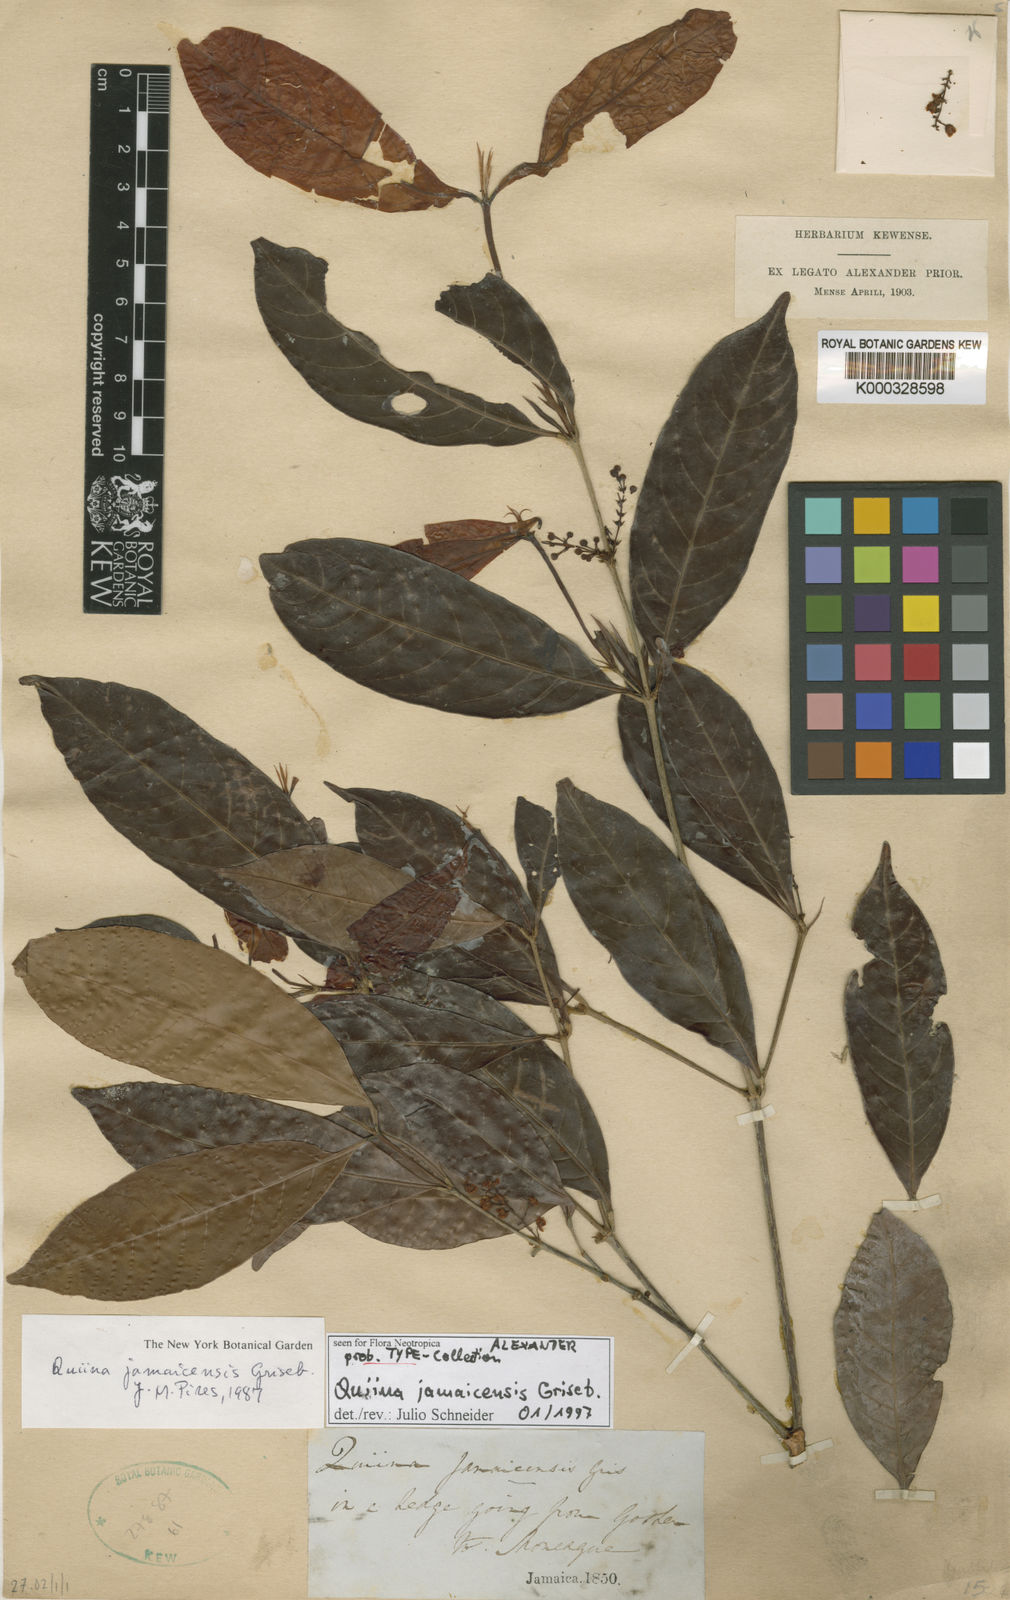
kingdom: Plantae
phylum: Tracheophyta
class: Magnoliopsida
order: Malpighiales
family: Quiinaceae
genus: Quiina
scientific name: Quiina jamaicensis
